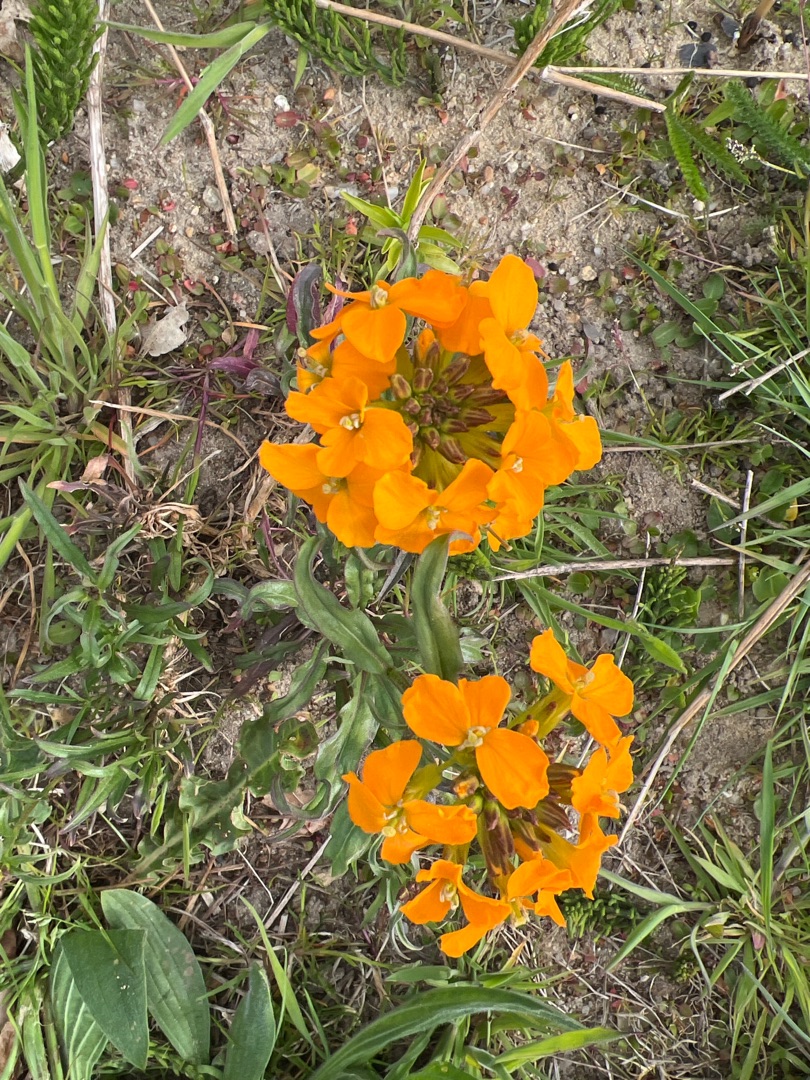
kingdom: Plantae
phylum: Tracheophyta
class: Magnoliopsida
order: Brassicales
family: Brassicaceae
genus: Erysimum
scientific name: Erysimum cheiri
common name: Gyldenlak
